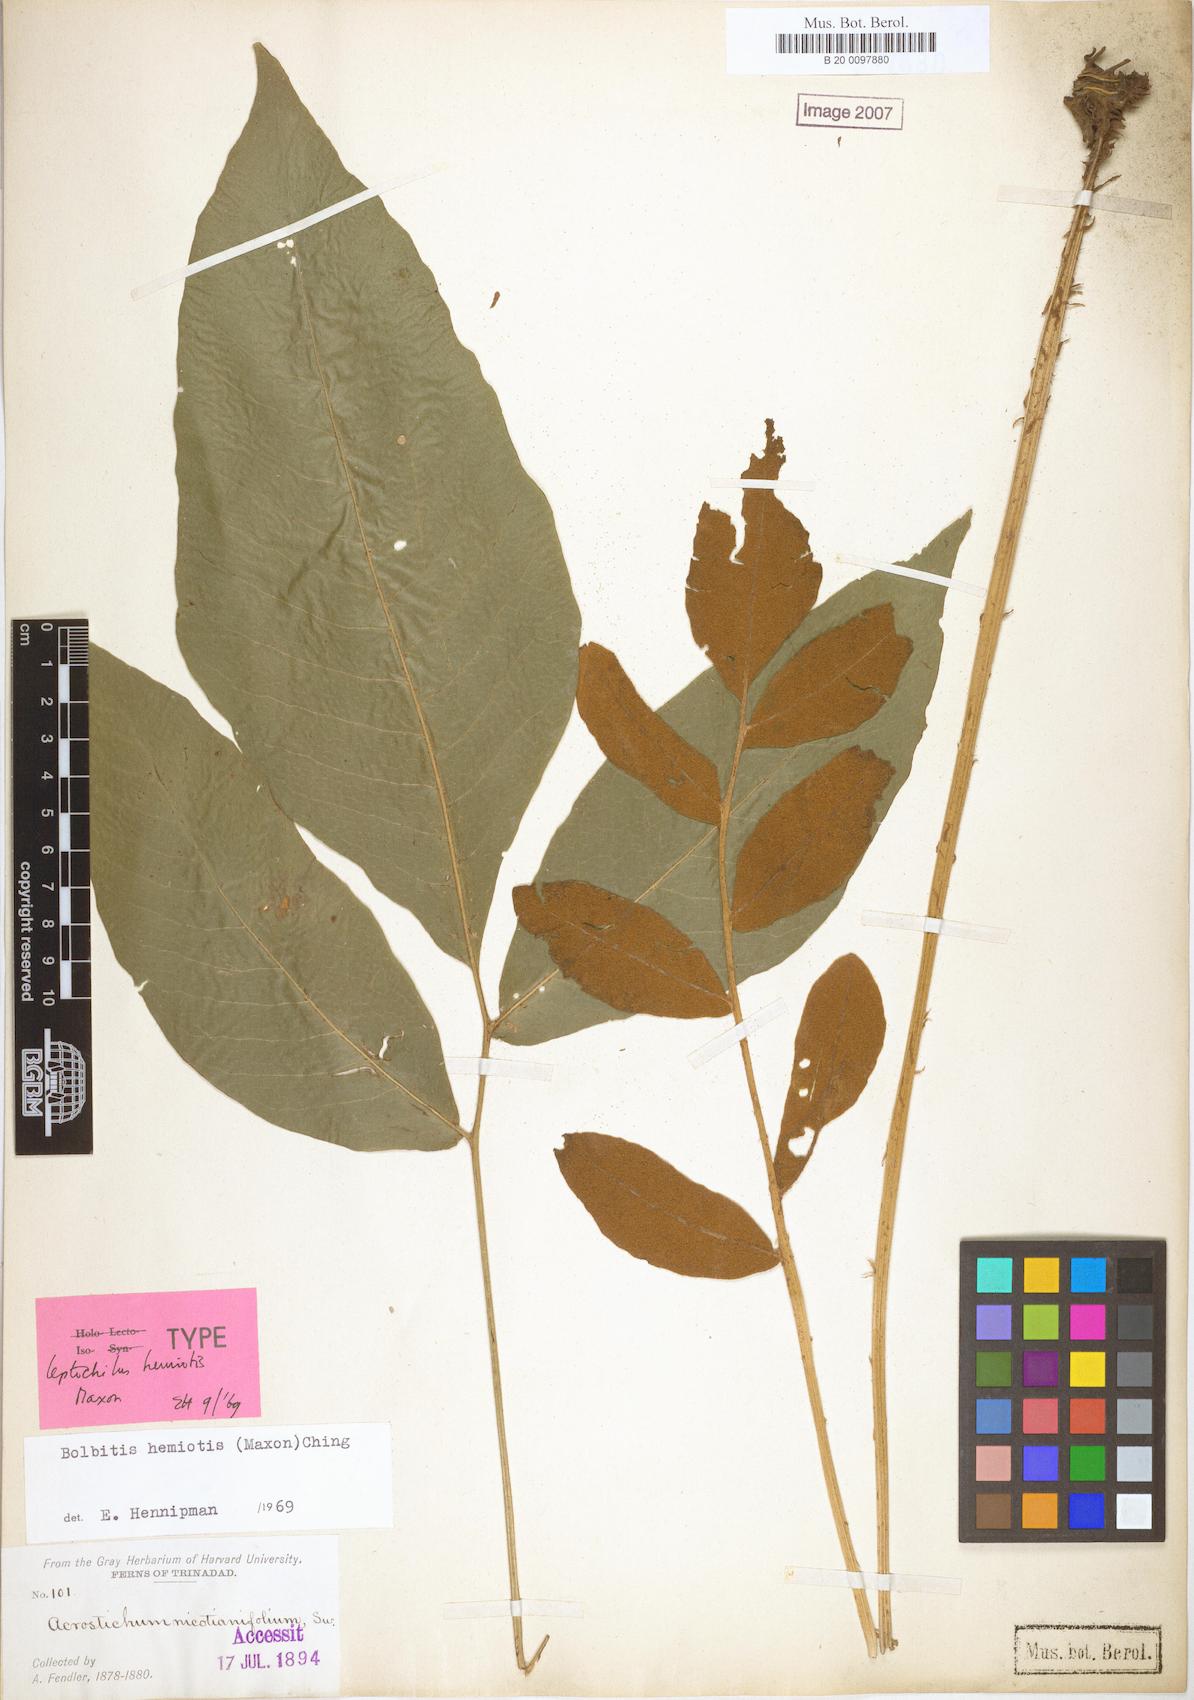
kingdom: Plantae
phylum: Tracheophyta
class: Polypodiopsida
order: Polypodiales
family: Dryopteridaceae
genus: Mickelia
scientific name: Mickelia hemiotis
